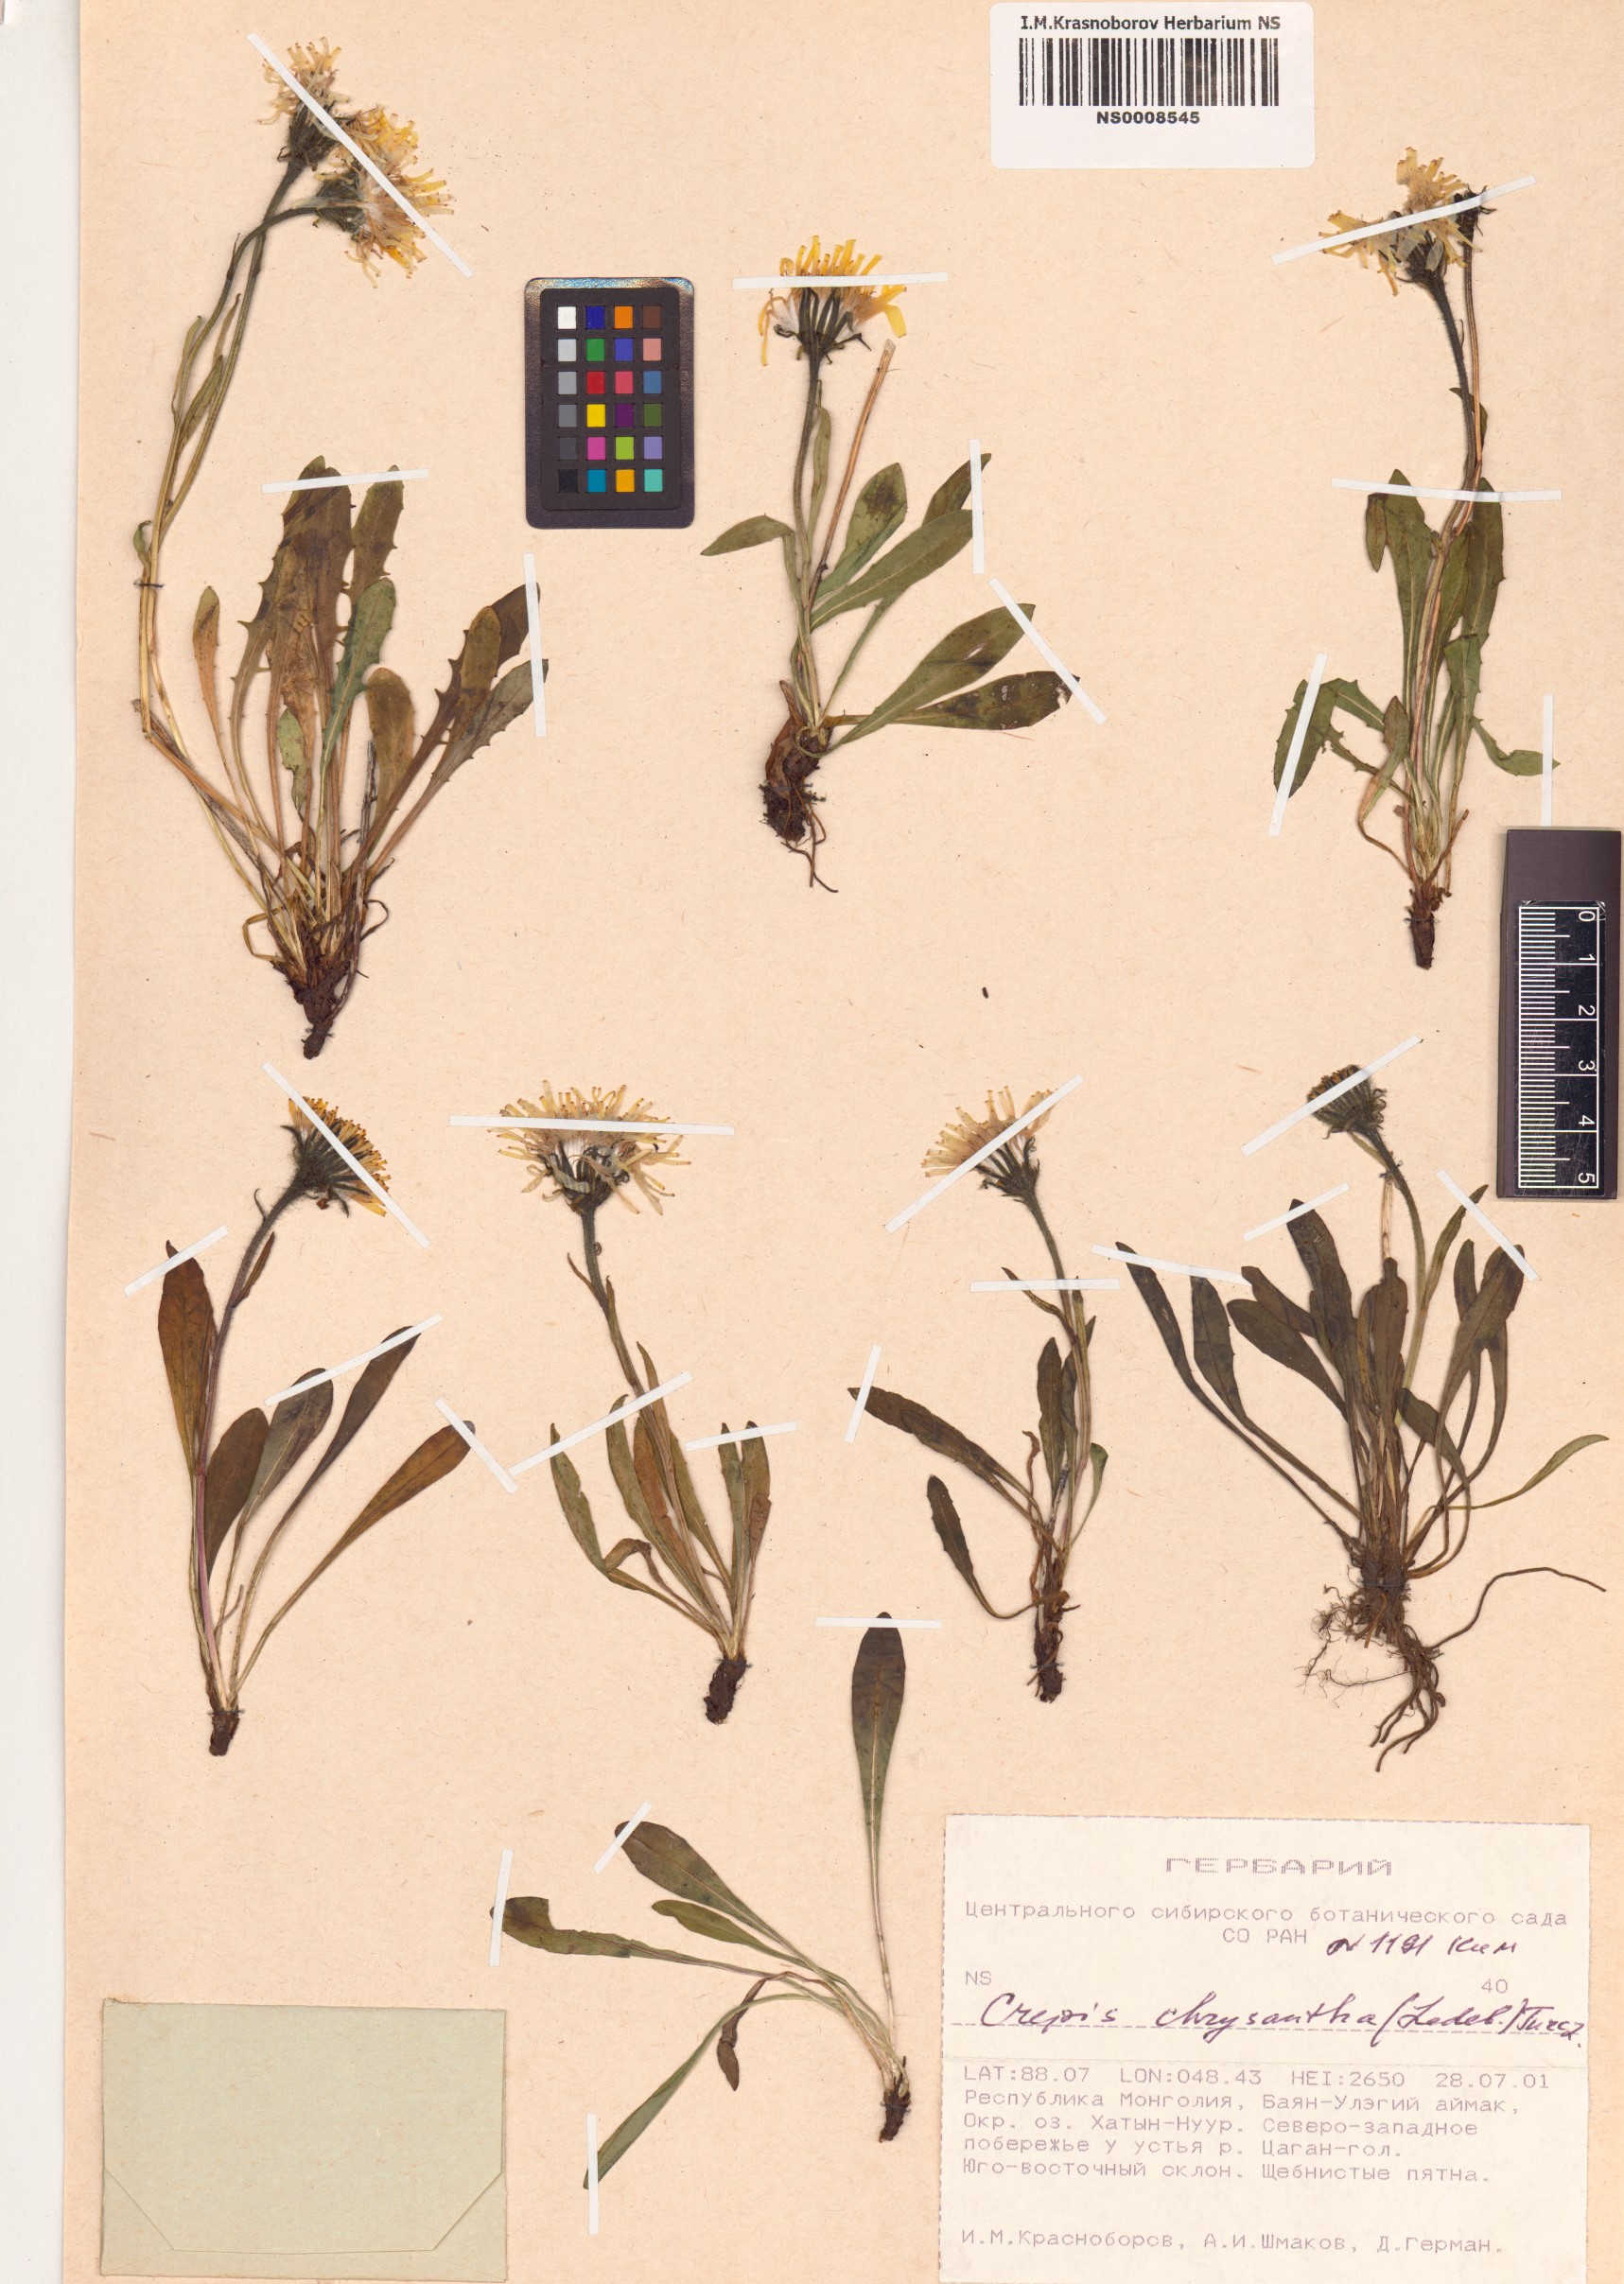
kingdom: Plantae
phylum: Tracheophyta
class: Magnoliopsida
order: Asterales
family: Asteraceae
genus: Crepis
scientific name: Crepis chrysantha
